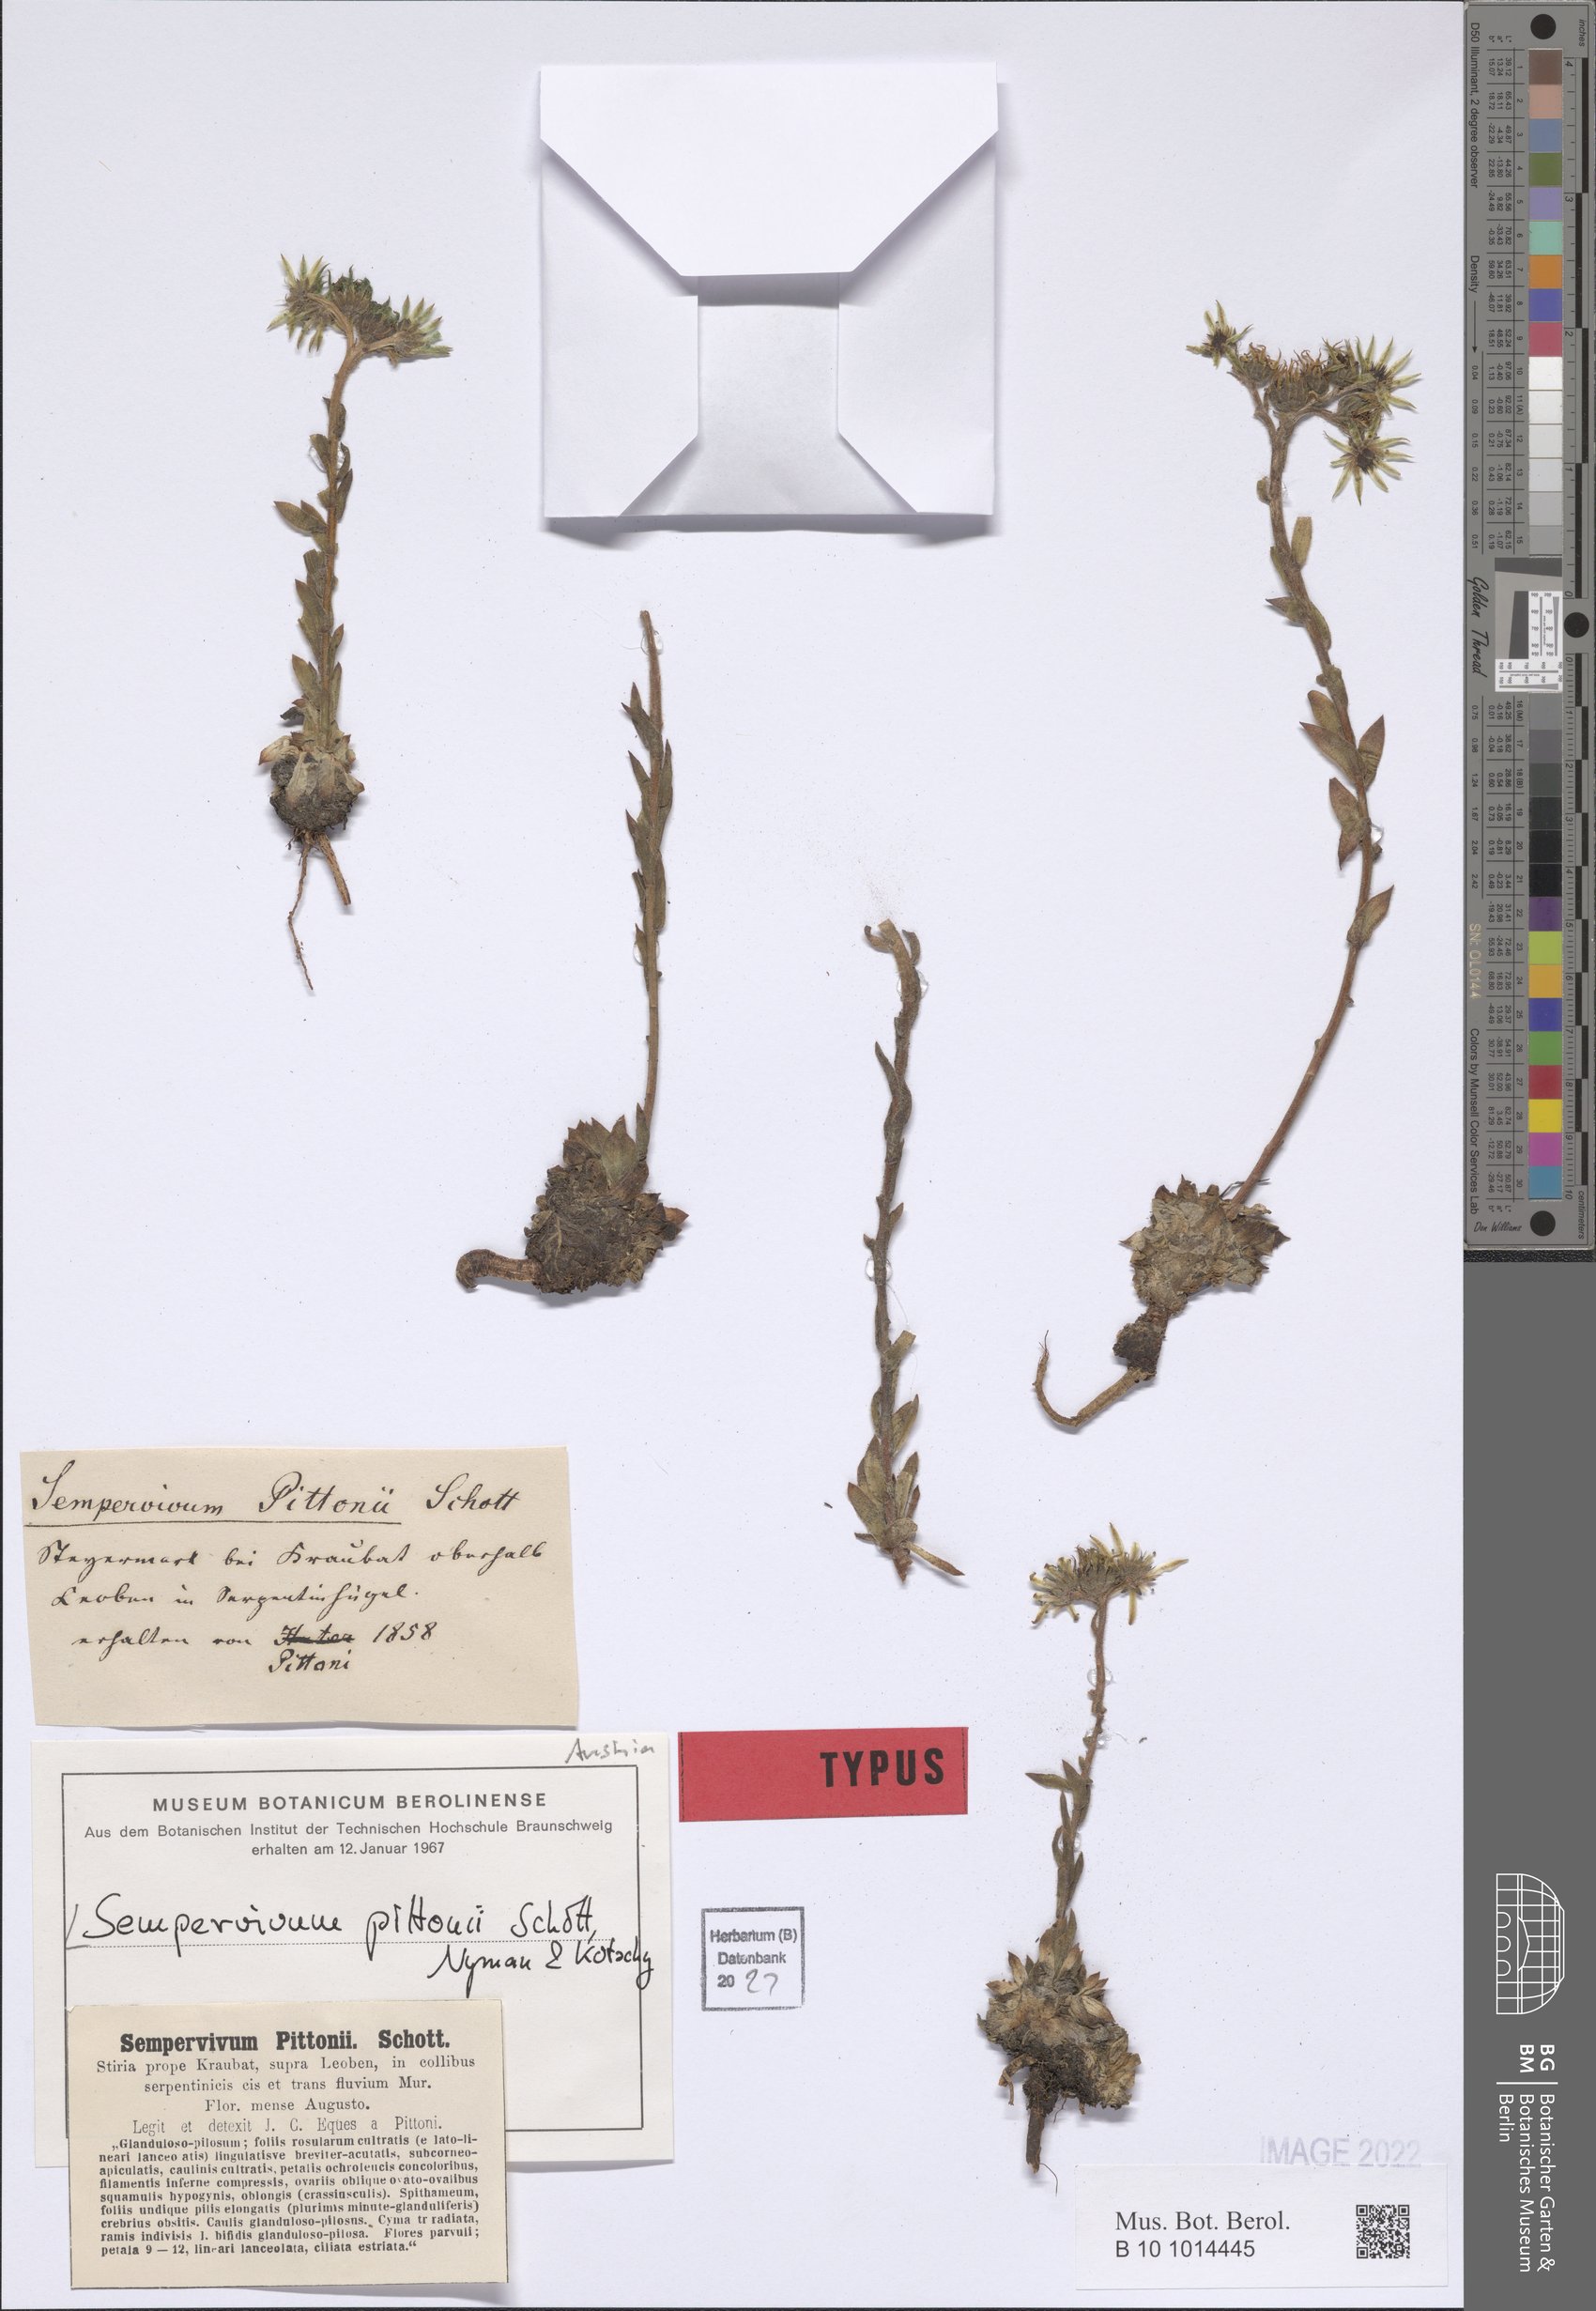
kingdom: Plantae
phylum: Tracheophyta
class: Magnoliopsida
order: Saxifragales
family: Crassulaceae
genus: Sempervivum
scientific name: Sempervivum pittonii
